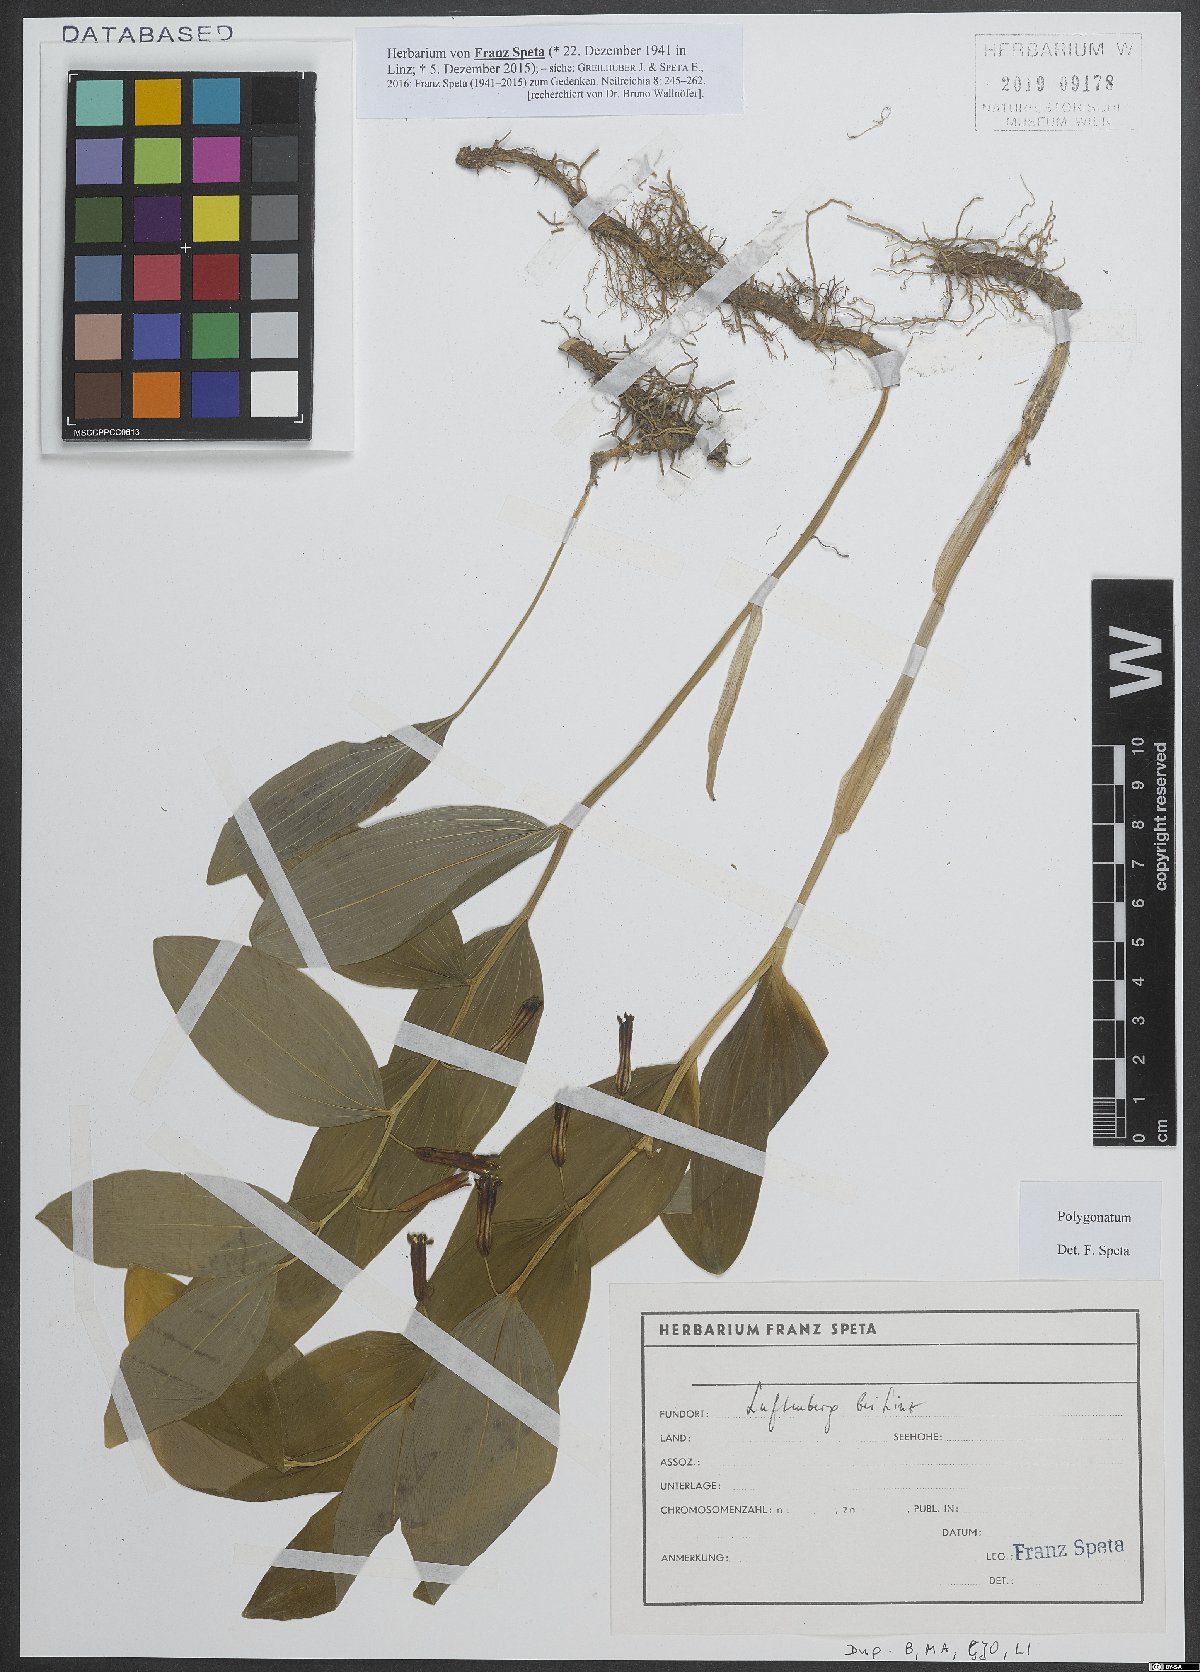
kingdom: Plantae
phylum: Tracheophyta
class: Liliopsida
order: Asparagales
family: Asparagaceae
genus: Polygonatum
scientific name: Polygonatum
